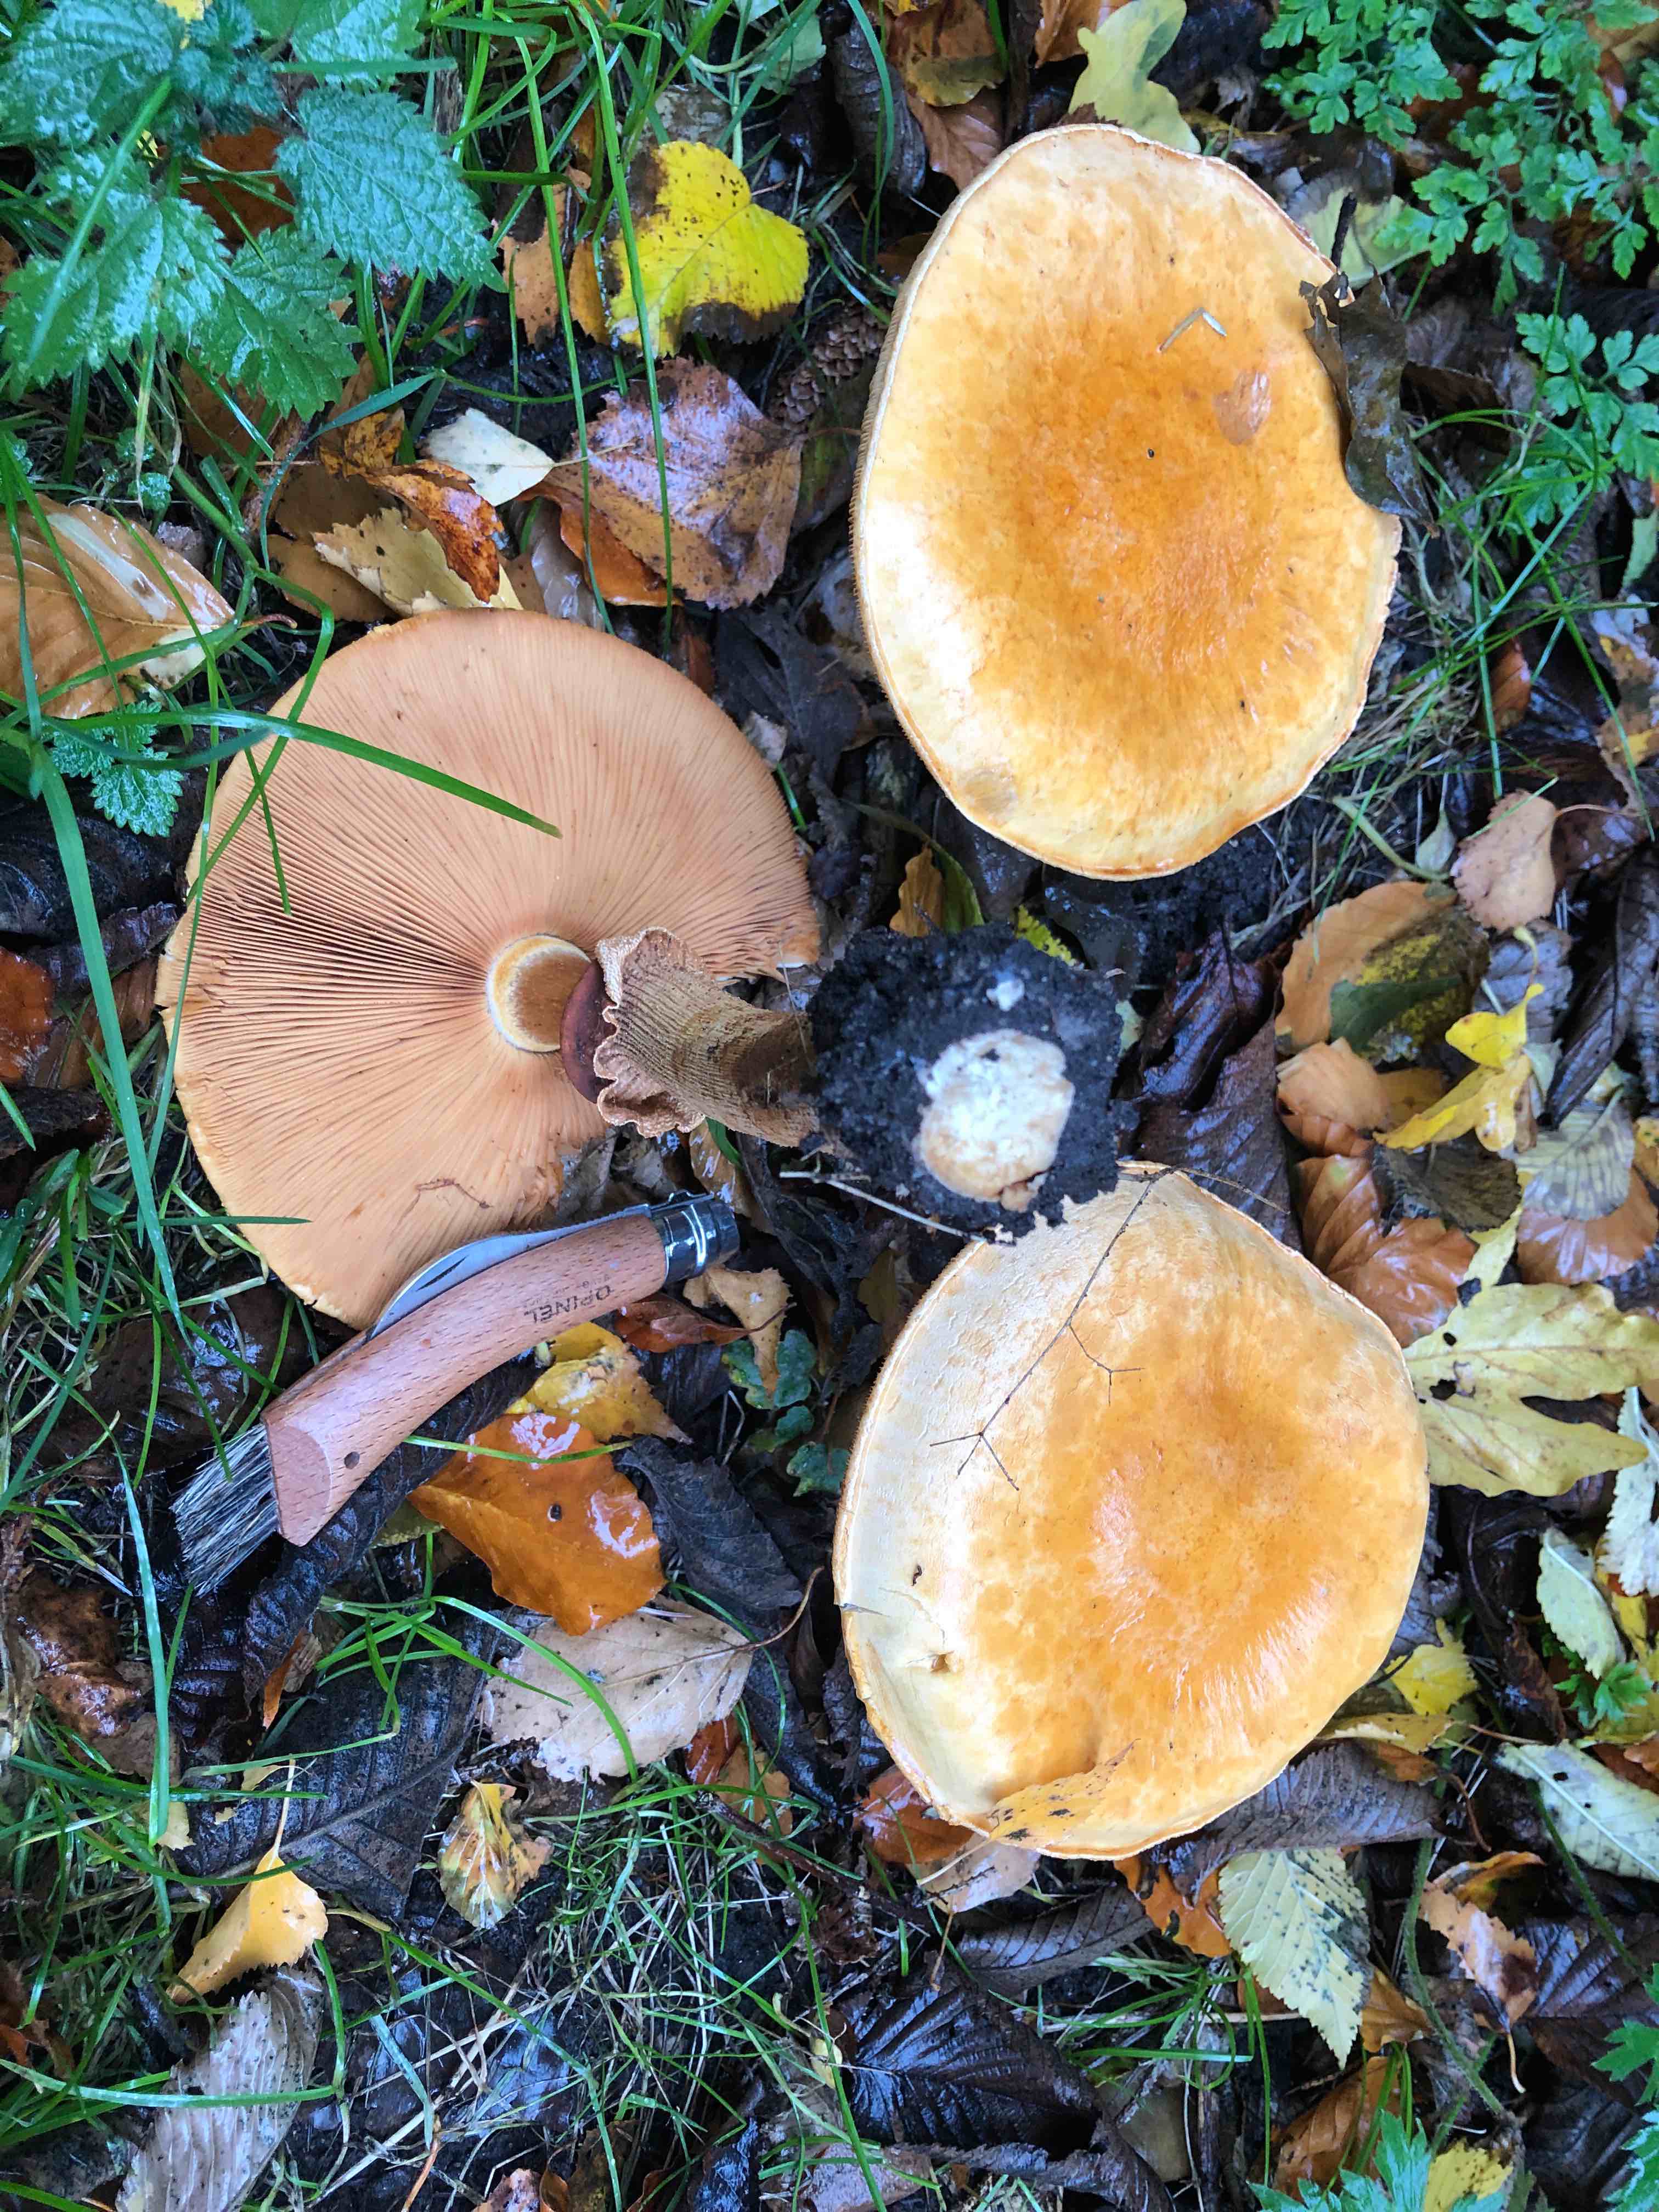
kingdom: Fungi
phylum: Basidiomycota
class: Agaricomycetes
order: Agaricales
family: Tricholomataceae
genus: Phaeolepiota
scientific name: Phaeolepiota aurea
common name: gyldenhat
